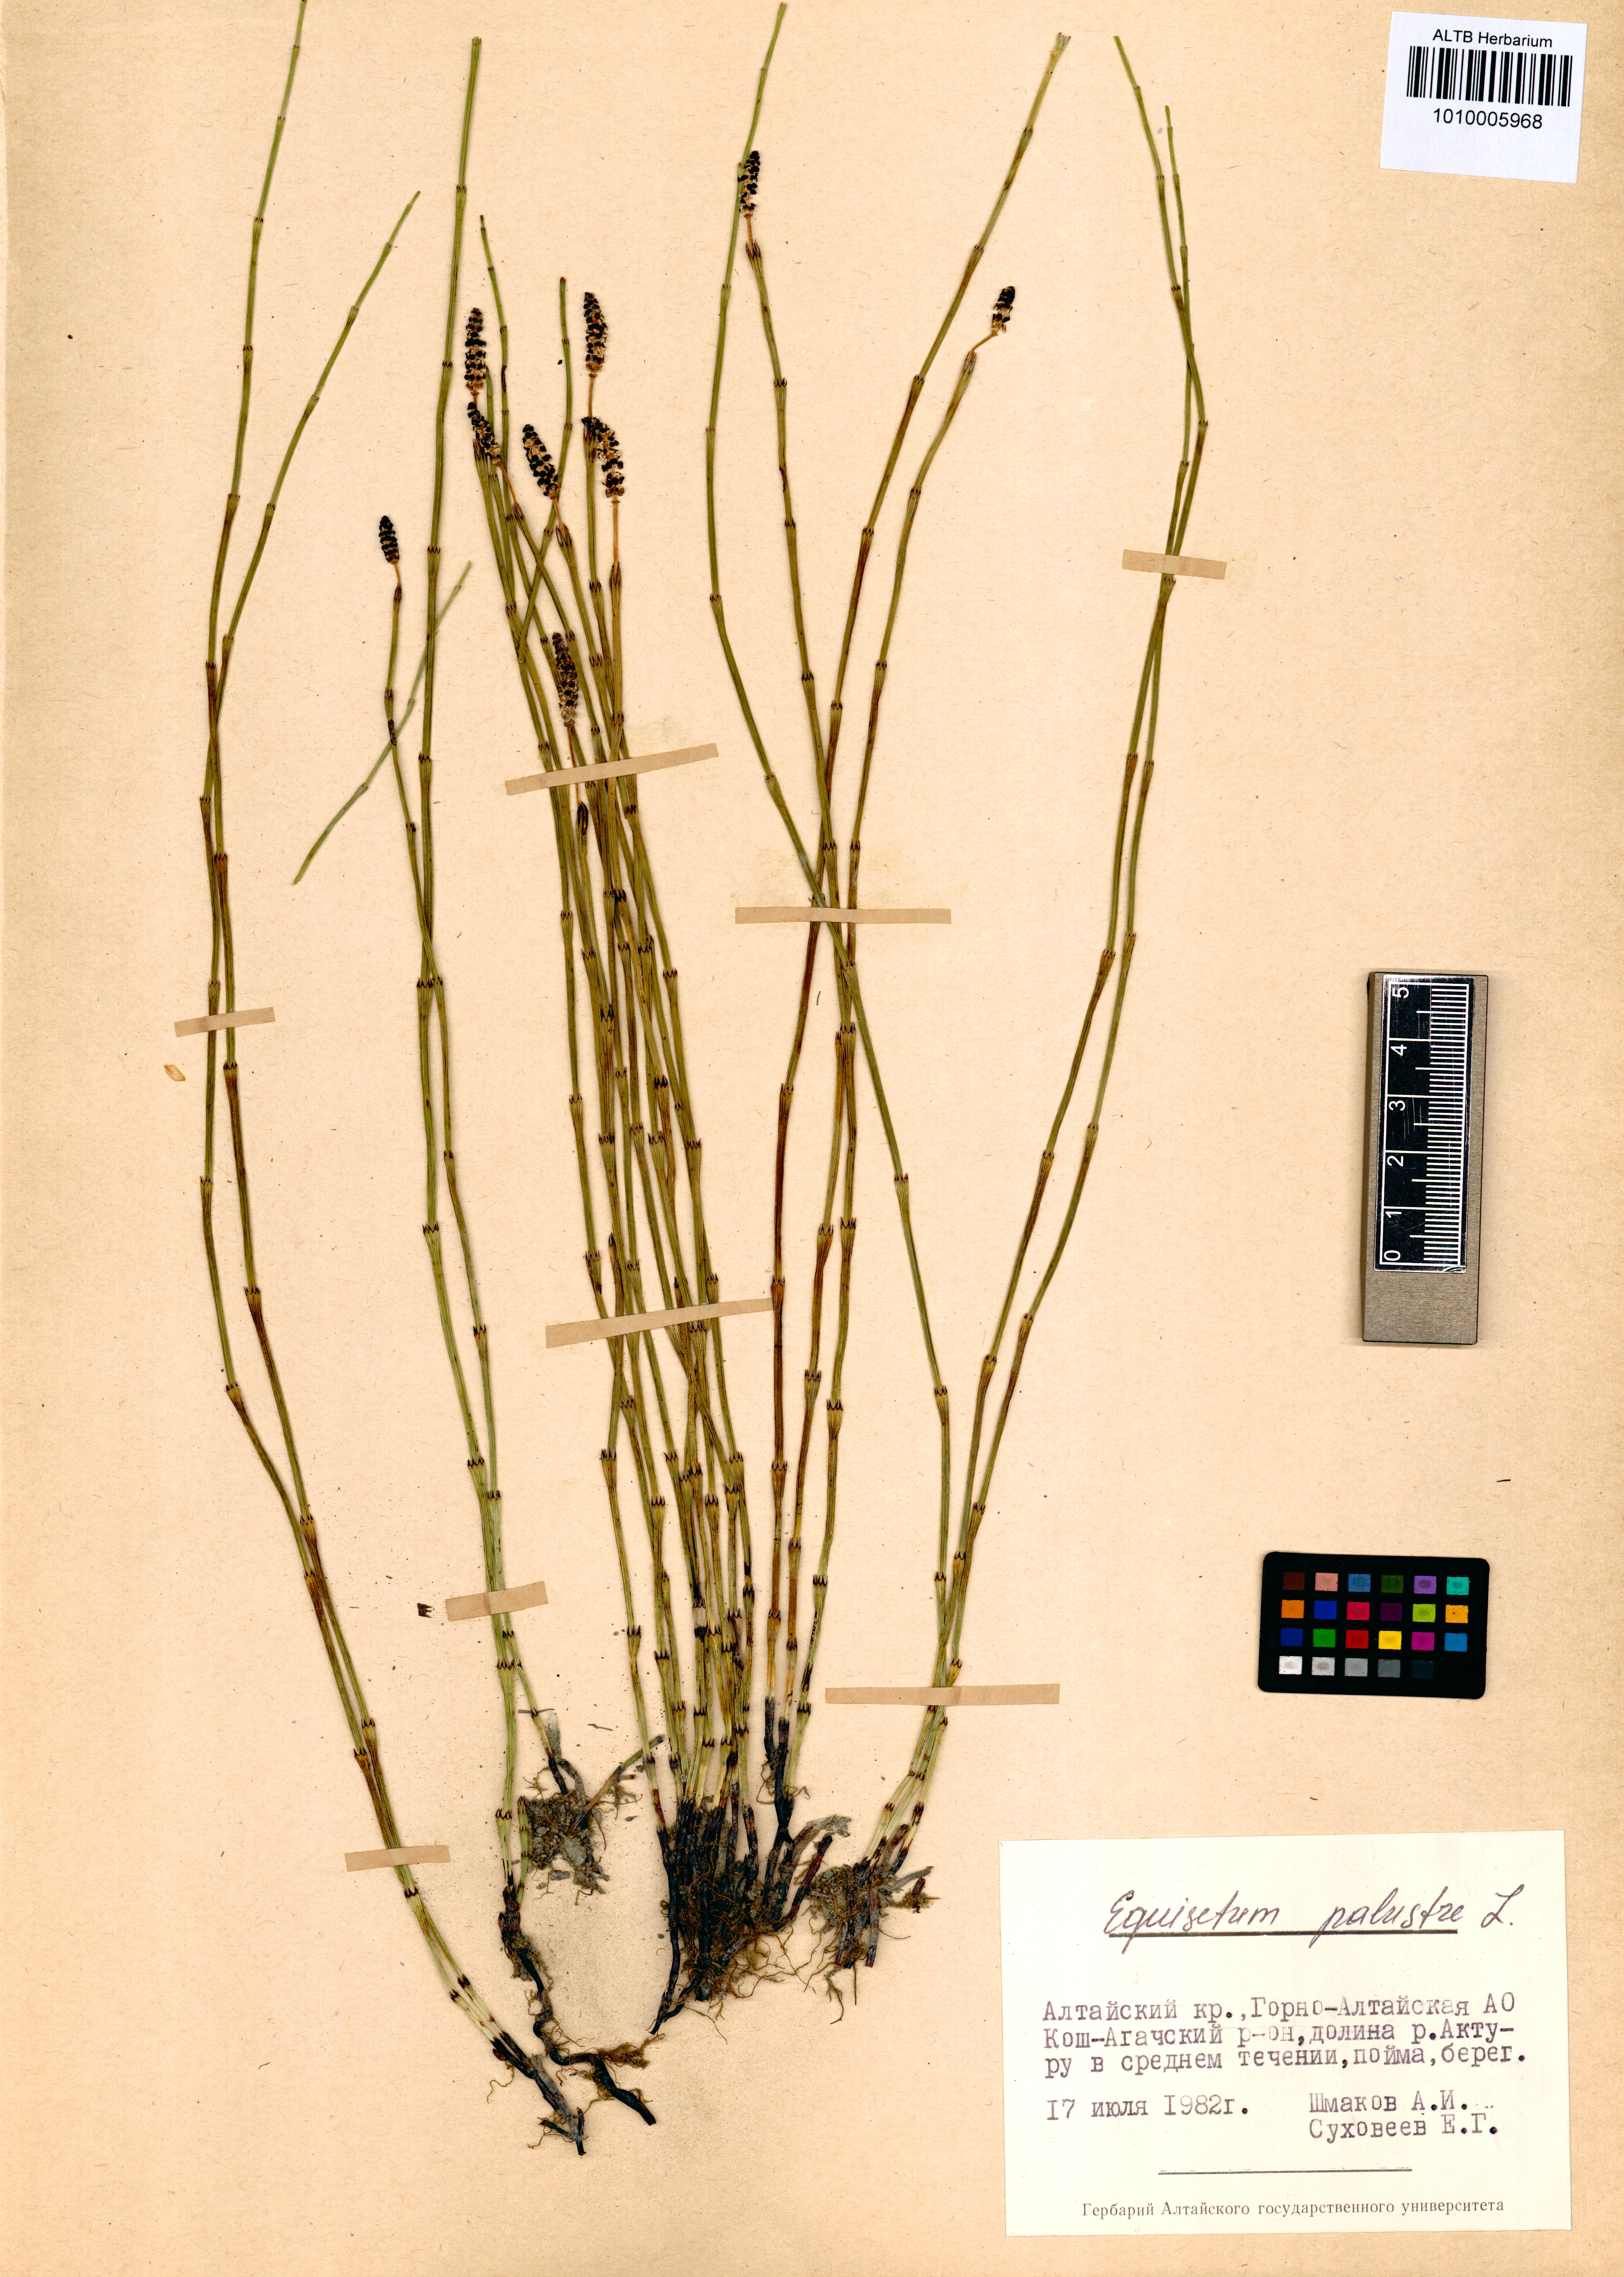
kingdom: Plantae
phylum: Tracheophyta
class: Polypodiopsida
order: Equisetales
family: Equisetaceae
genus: Equisetum
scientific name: Equisetum palustre
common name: Marsh horsetail
